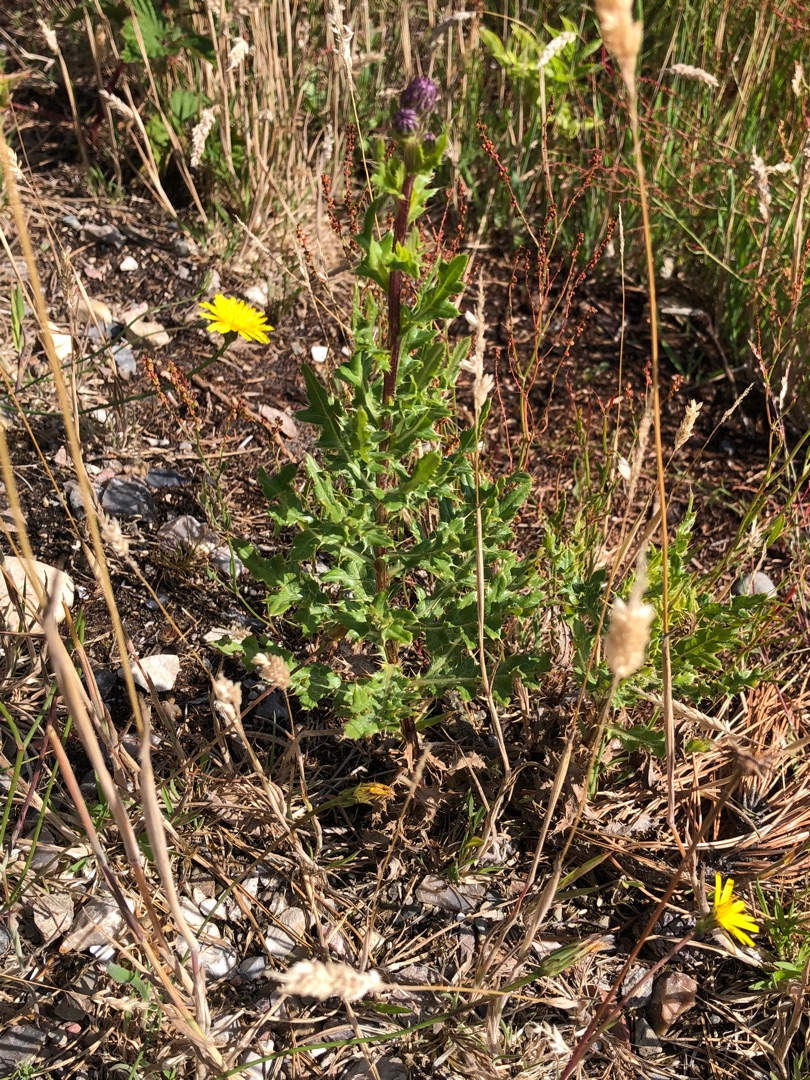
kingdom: Plantae
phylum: Tracheophyta
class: Magnoliopsida
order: Asterales
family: Asteraceae
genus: Cirsium
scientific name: Cirsium arvense
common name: Ager-tidsel
